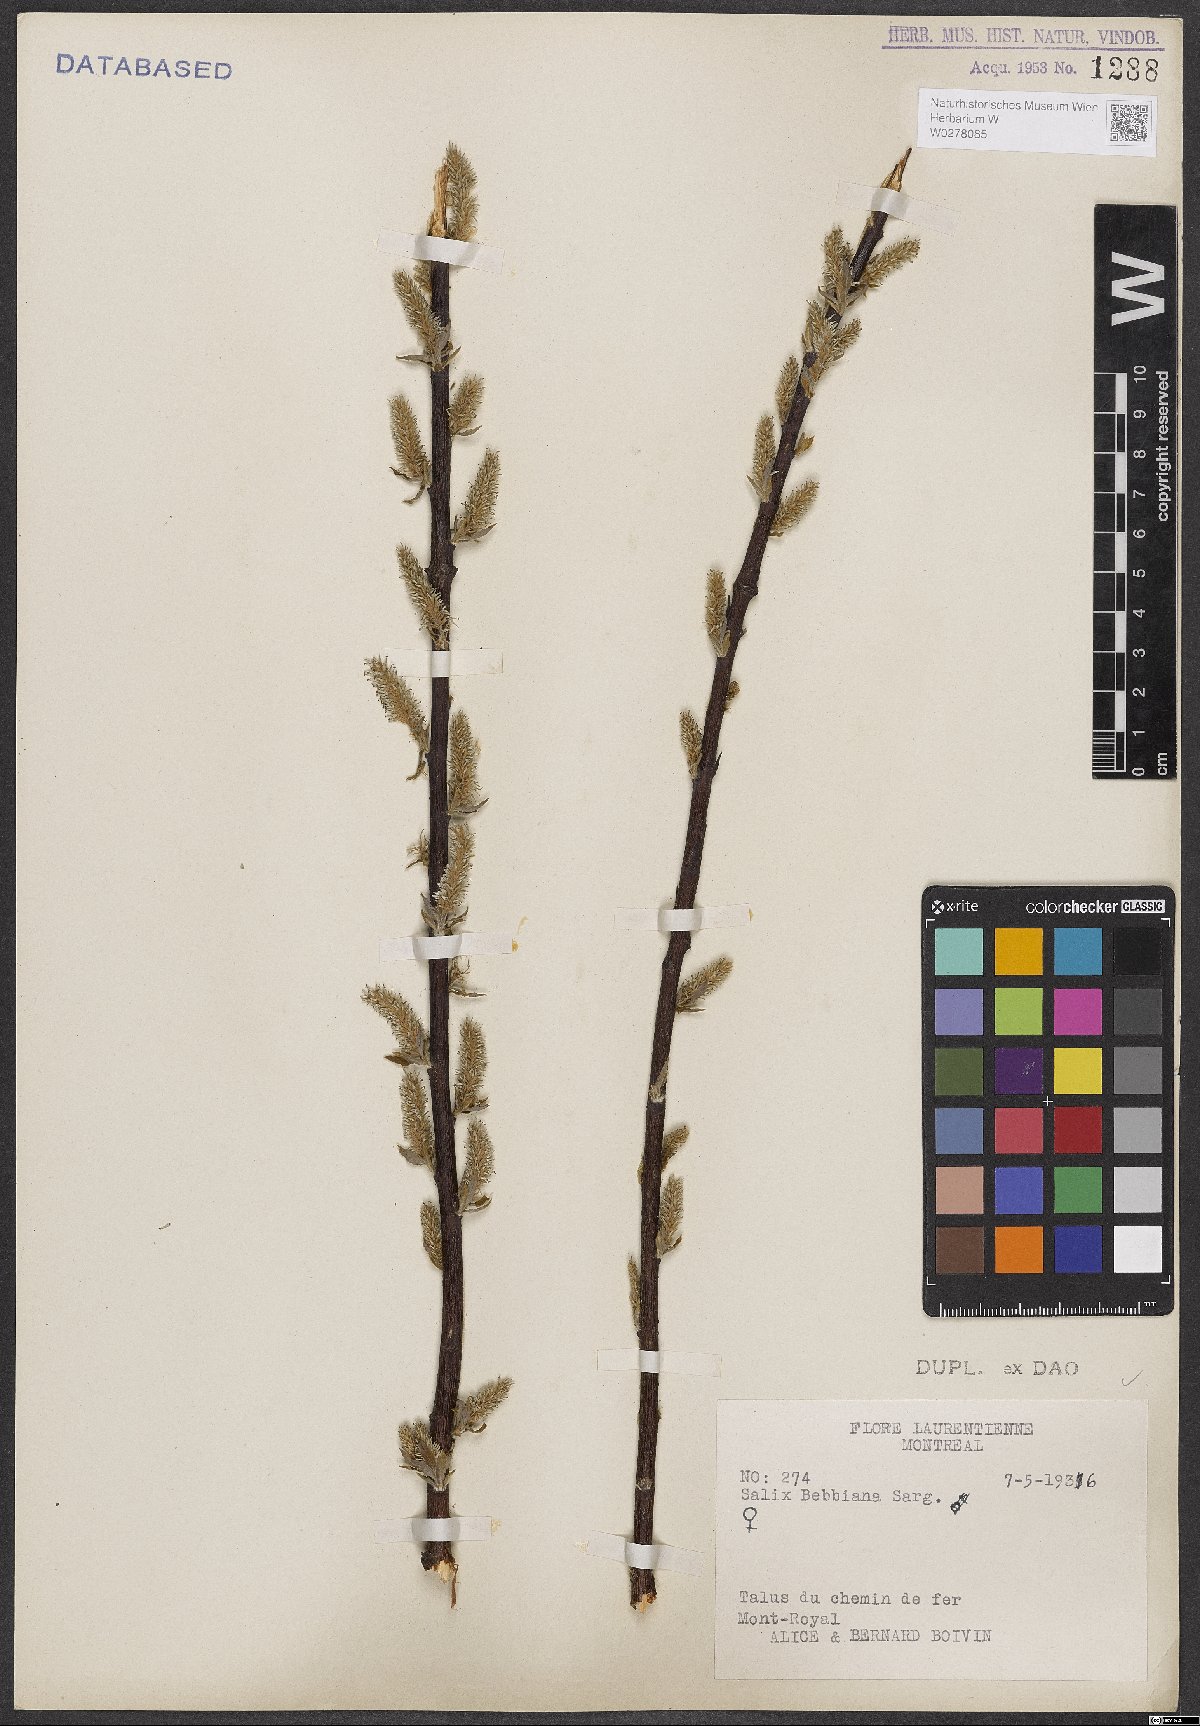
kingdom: Plantae
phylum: Tracheophyta
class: Magnoliopsida
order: Malpighiales
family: Salicaceae
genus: Salix
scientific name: Salix bebbiana
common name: Bebb's willow
